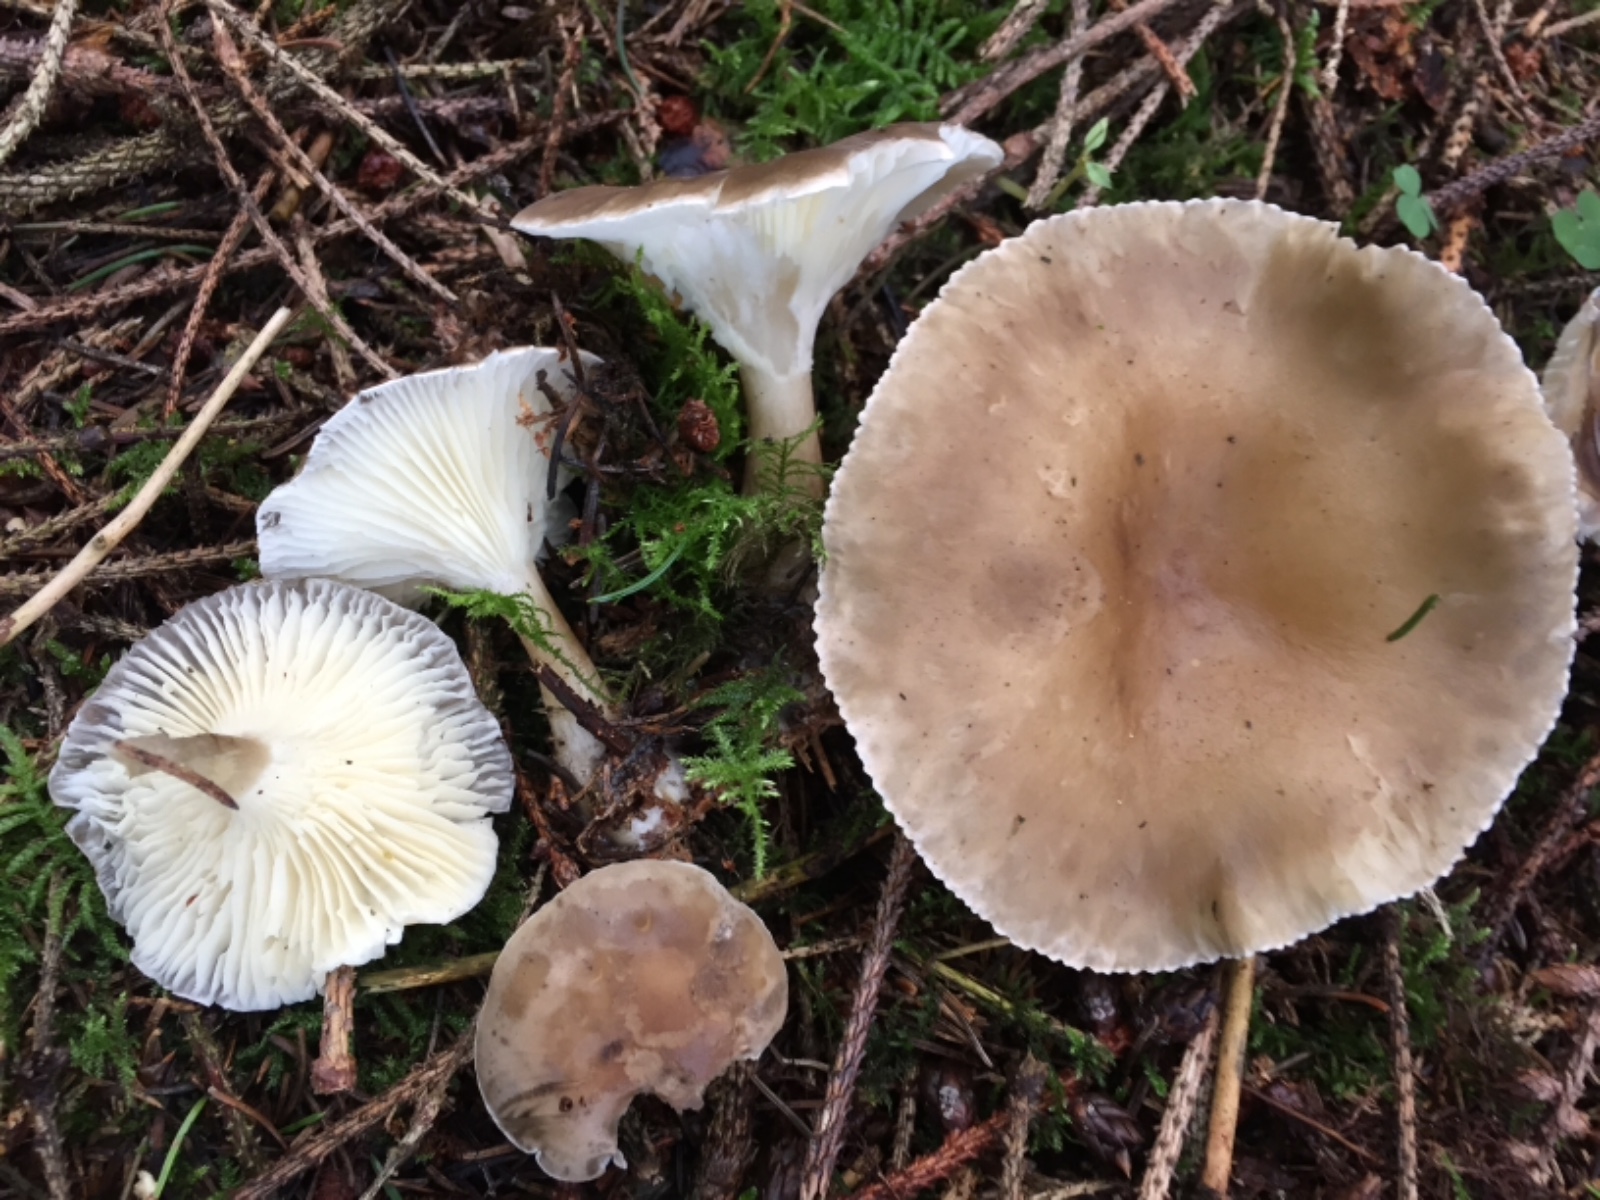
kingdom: Fungi
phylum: Basidiomycota
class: Agaricomycetes
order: Agaricales
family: Hygrophoraceae
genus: Ampulloclitocybe
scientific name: Ampulloclitocybe clavipes
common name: køllefod
